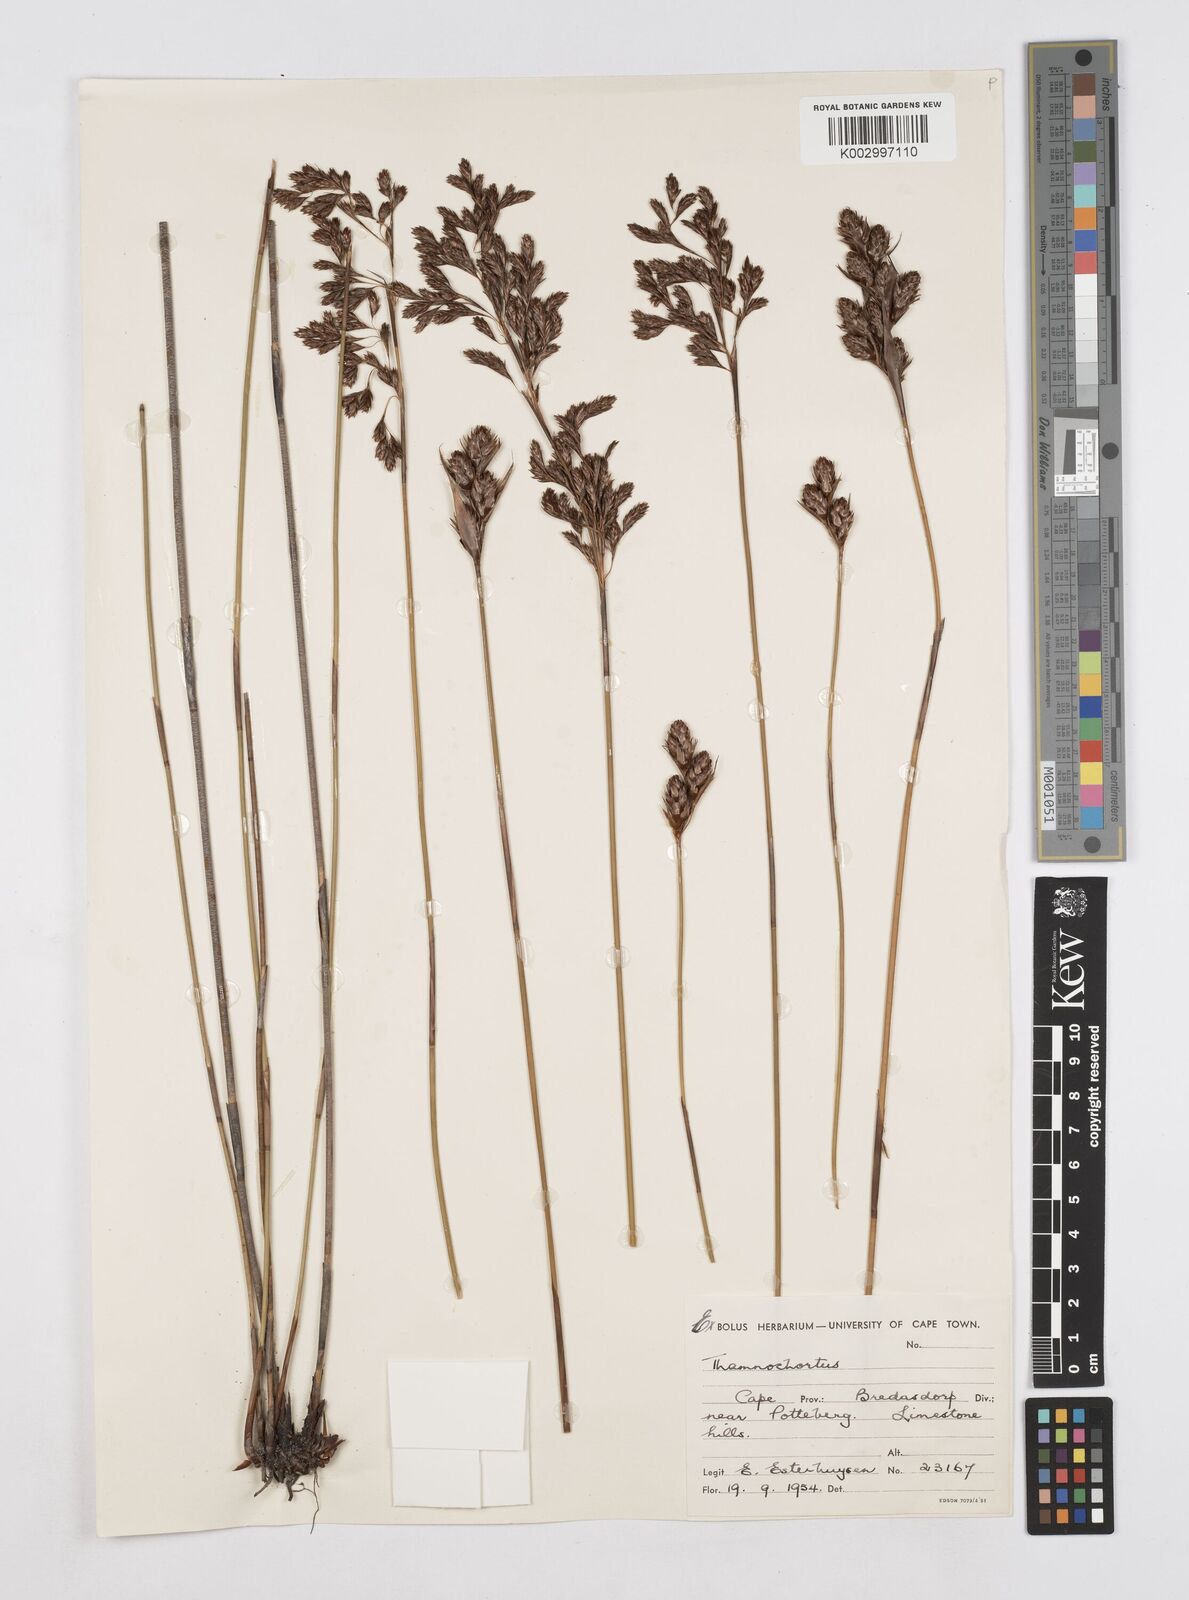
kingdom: Plantae
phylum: Tracheophyta
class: Liliopsida
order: Poales
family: Restionaceae
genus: Thamnochortus
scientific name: Thamnochortus muirii
